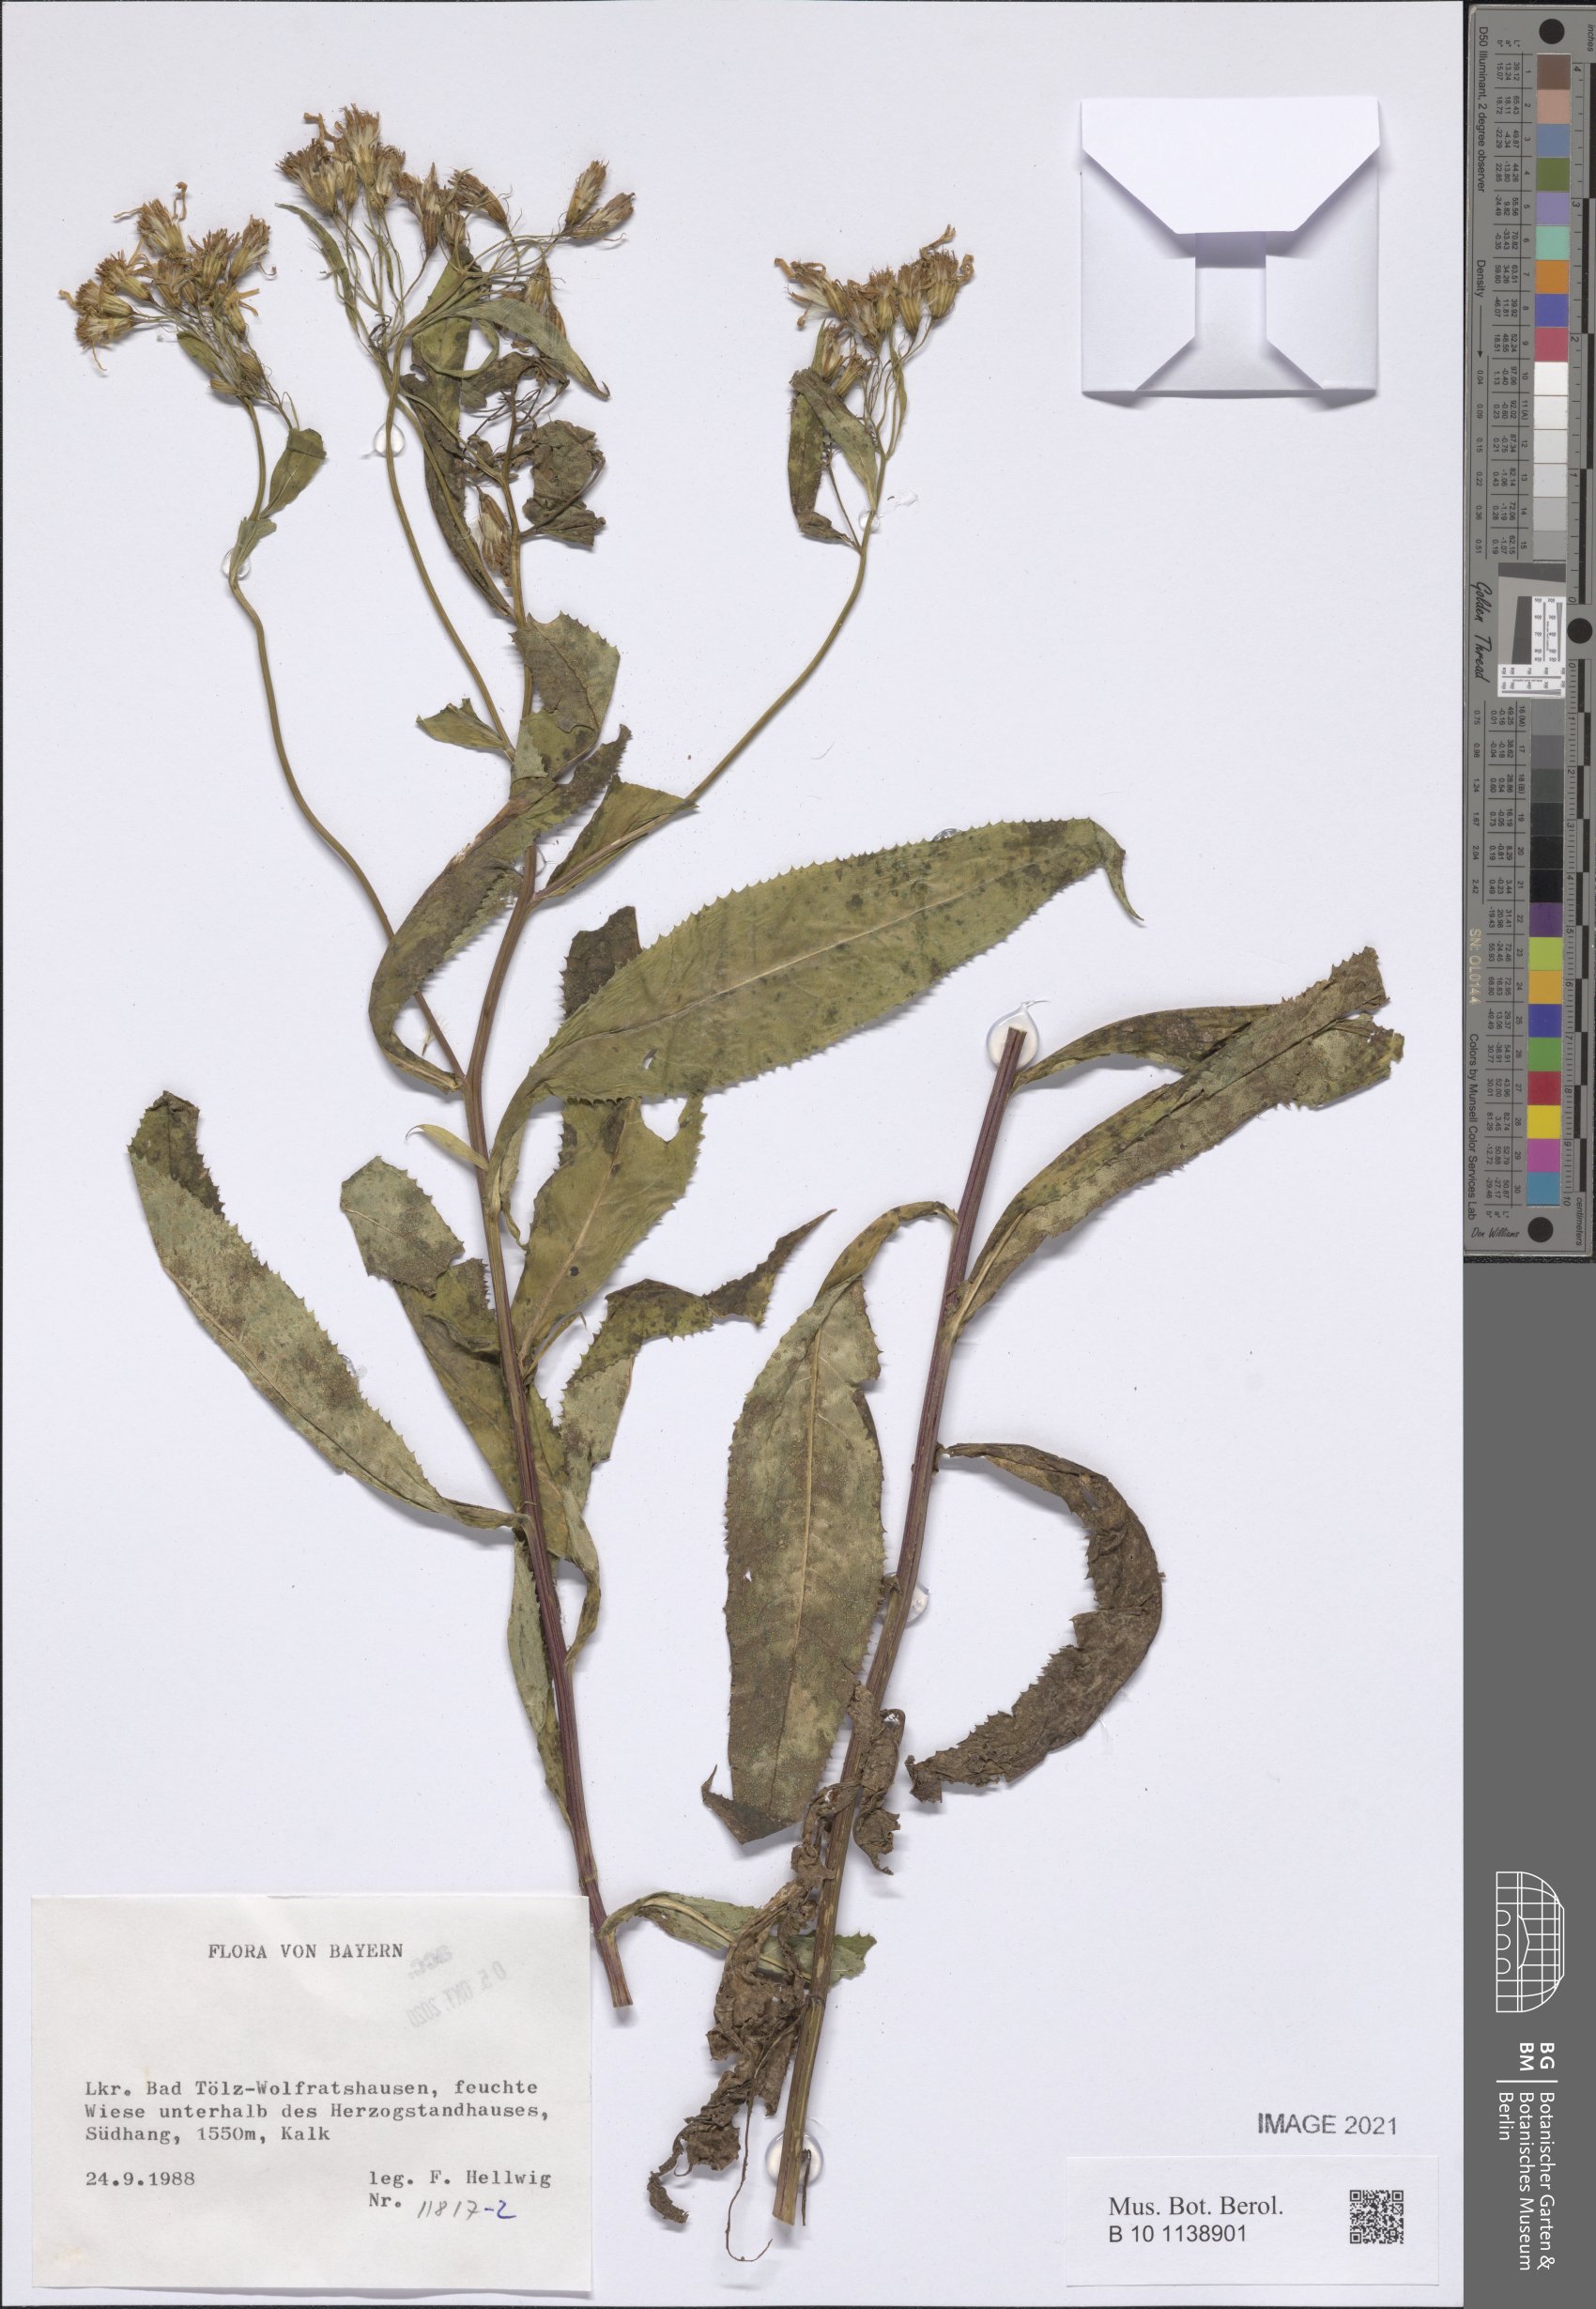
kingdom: Plantae
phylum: Tracheophyta
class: Magnoliopsida
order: Asterales
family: Asteraceae
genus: Senecio
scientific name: Senecio
